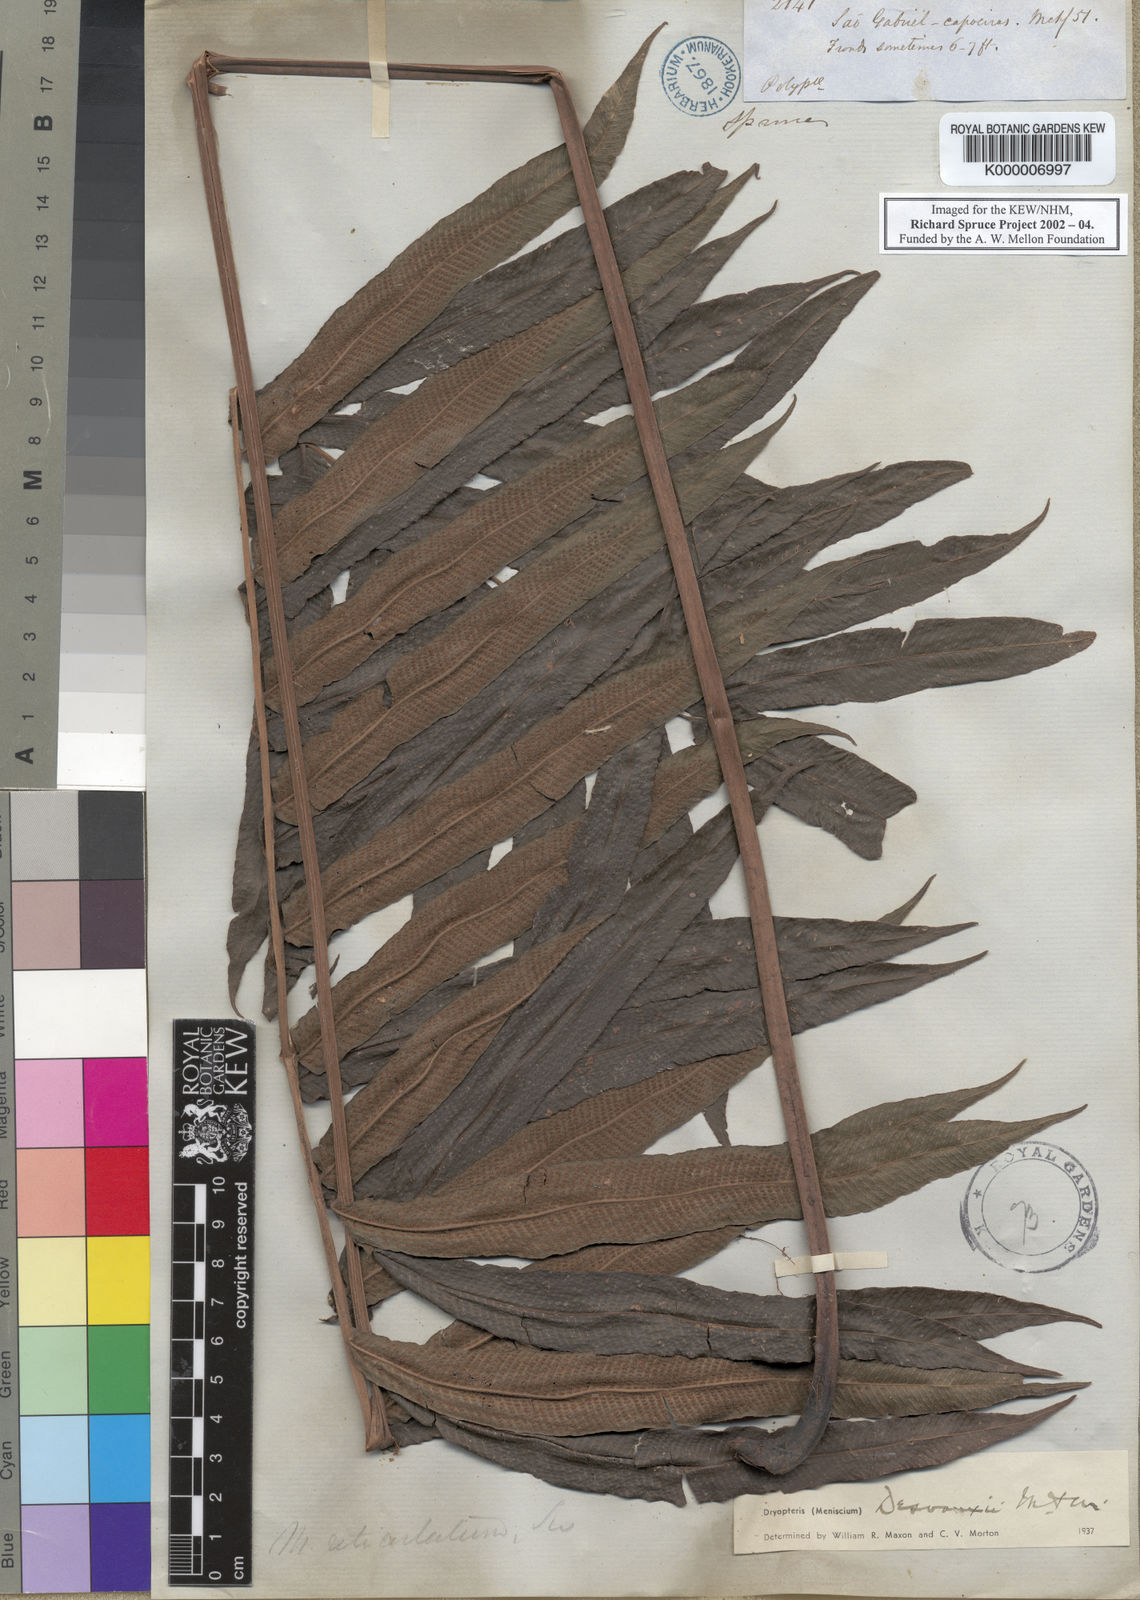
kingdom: Plantae
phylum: Tracheophyta
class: Polypodiopsida
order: Polypodiales
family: Thelypteridaceae
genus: Meniscium
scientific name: Meniscium
